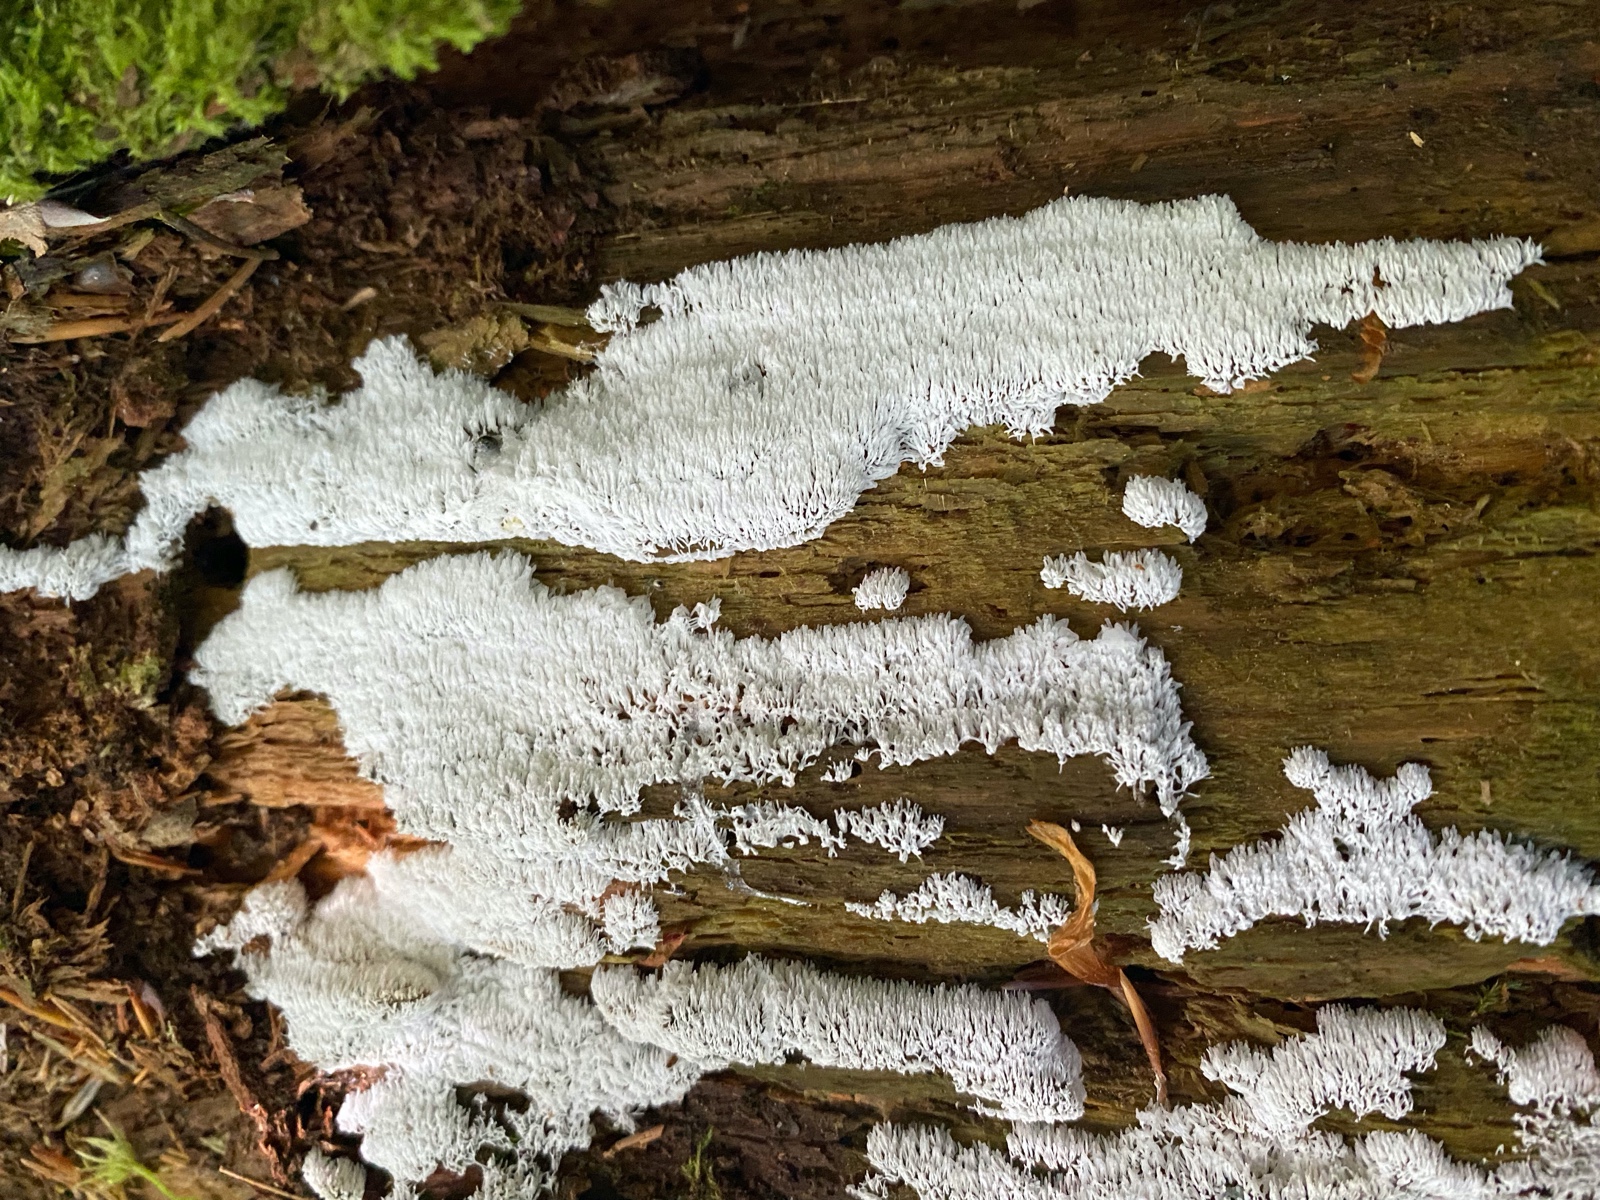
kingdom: Protozoa
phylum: Mycetozoa
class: Protosteliomycetes
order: Ceratiomyxales
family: Ceratiomyxaceae
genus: Ceratiomyxa
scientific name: Ceratiomyxa fruticulosa
